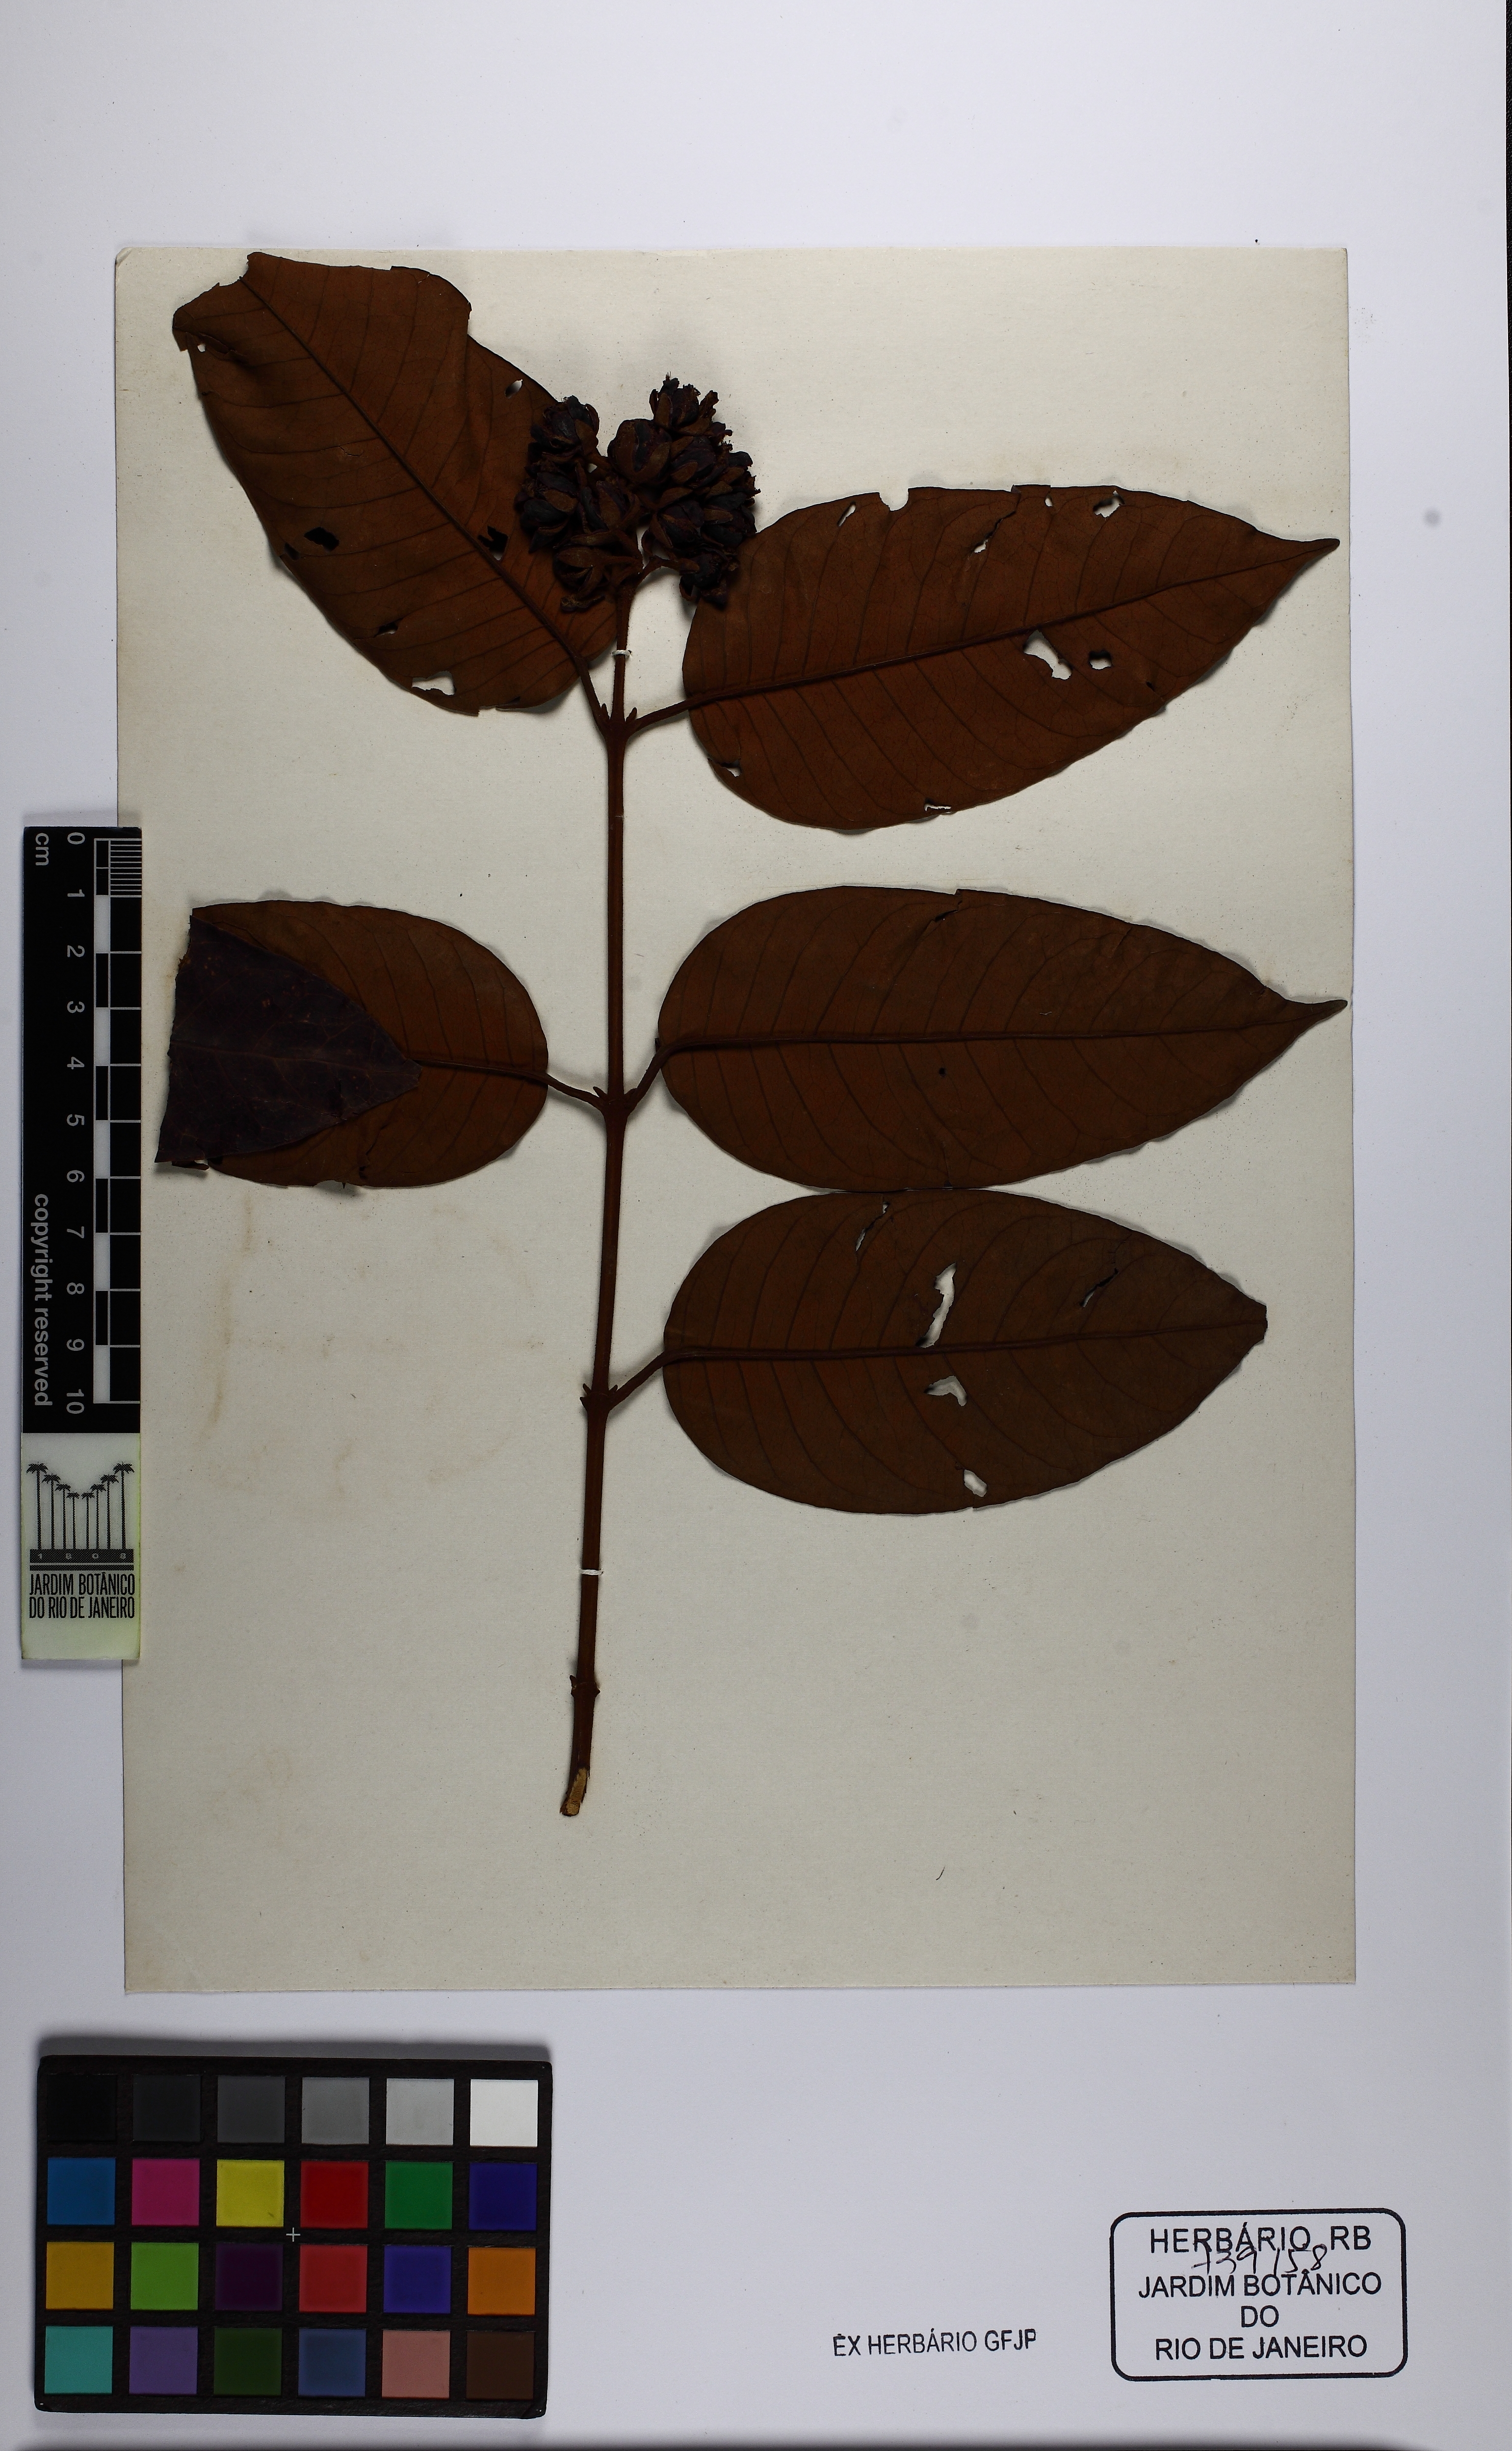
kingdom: Plantae
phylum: Tracheophyta
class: Magnoliopsida
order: Malpighiales
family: Hypericaceae
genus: Vismia
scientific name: Vismia sandwithii
